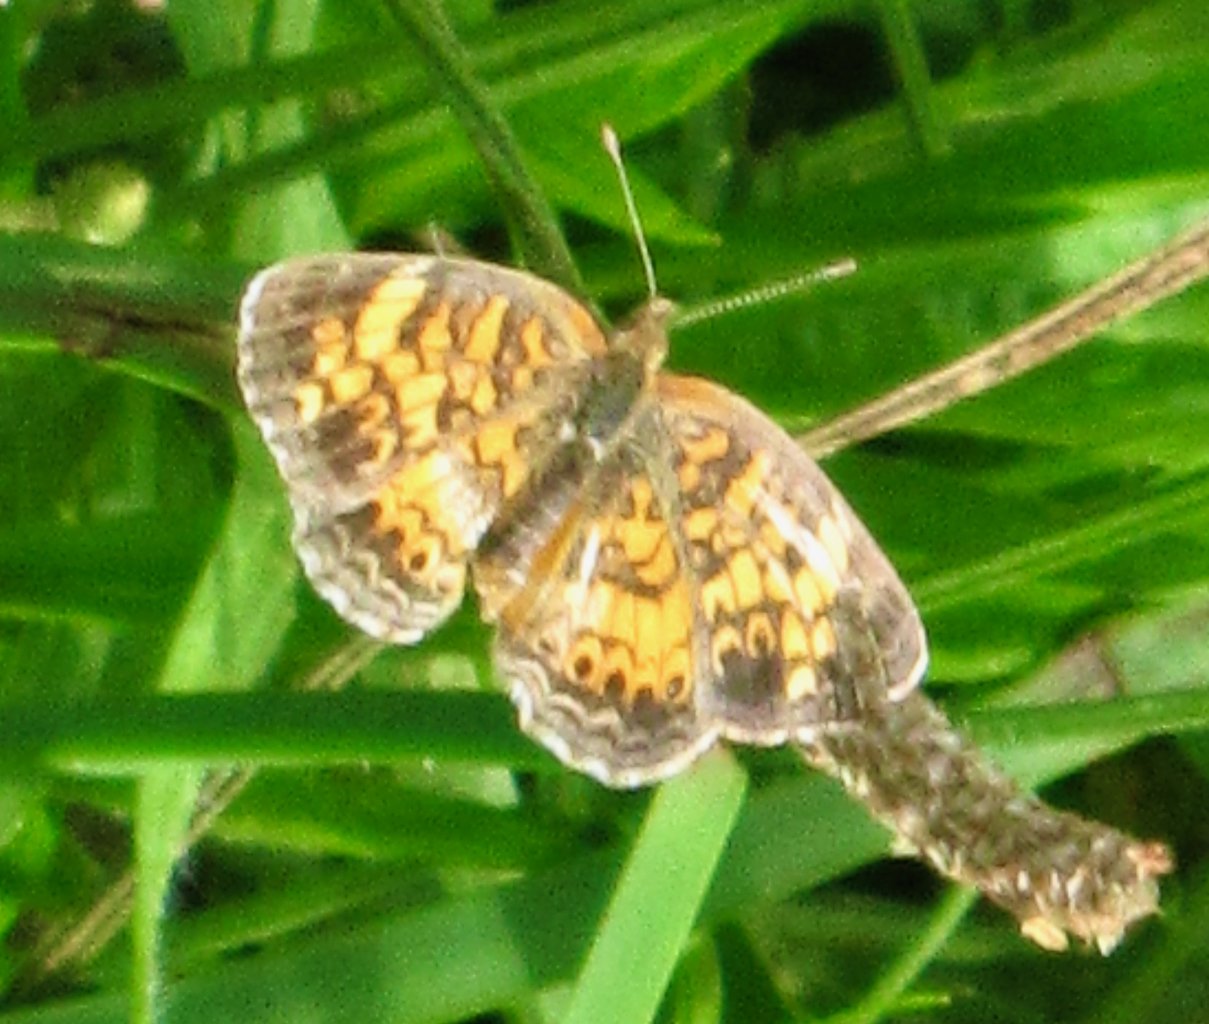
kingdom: Animalia
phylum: Arthropoda
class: Insecta
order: Lepidoptera
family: Nymphalidae
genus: Phyciodes
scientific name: Phyciodes tharos
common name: Pearl Crescent
